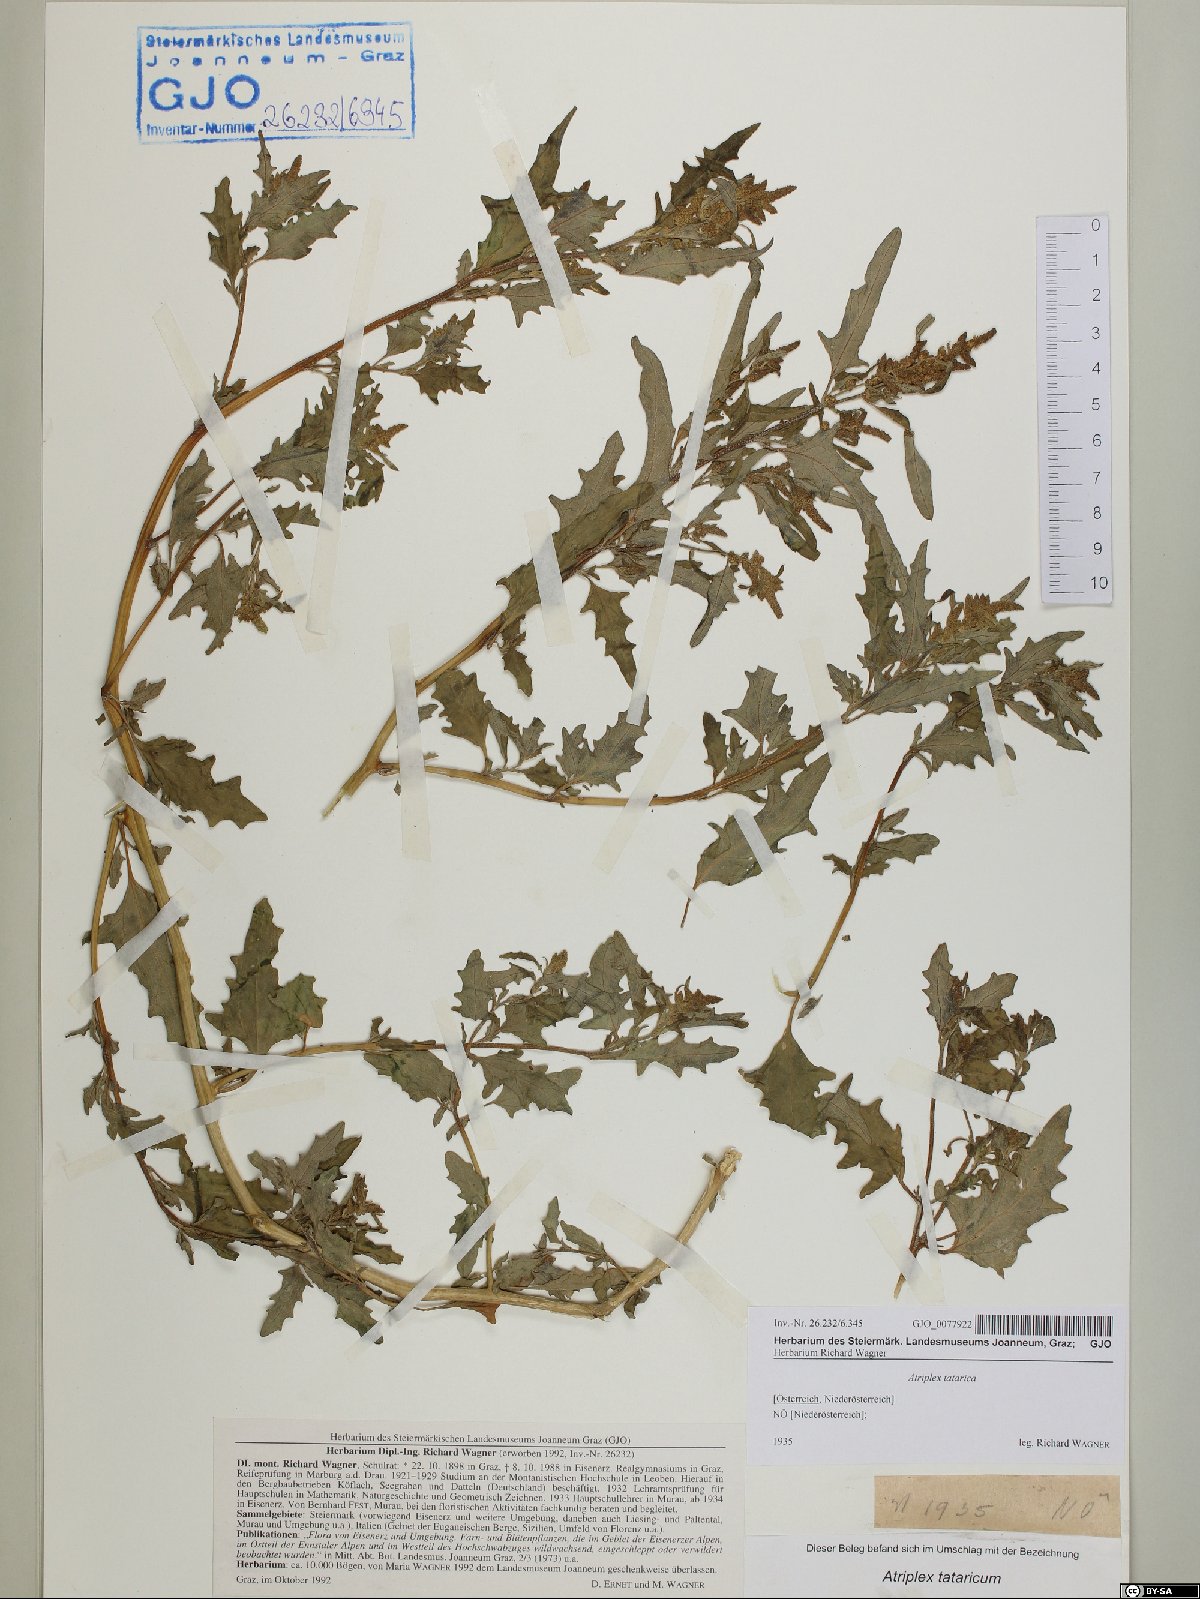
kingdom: Plantae
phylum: Tracheophyta
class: Magnoliopsida
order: Caryophyllales
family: Amaranthaceae
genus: Atriplex
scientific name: Atriplex tatarica
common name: Tatarian orache
